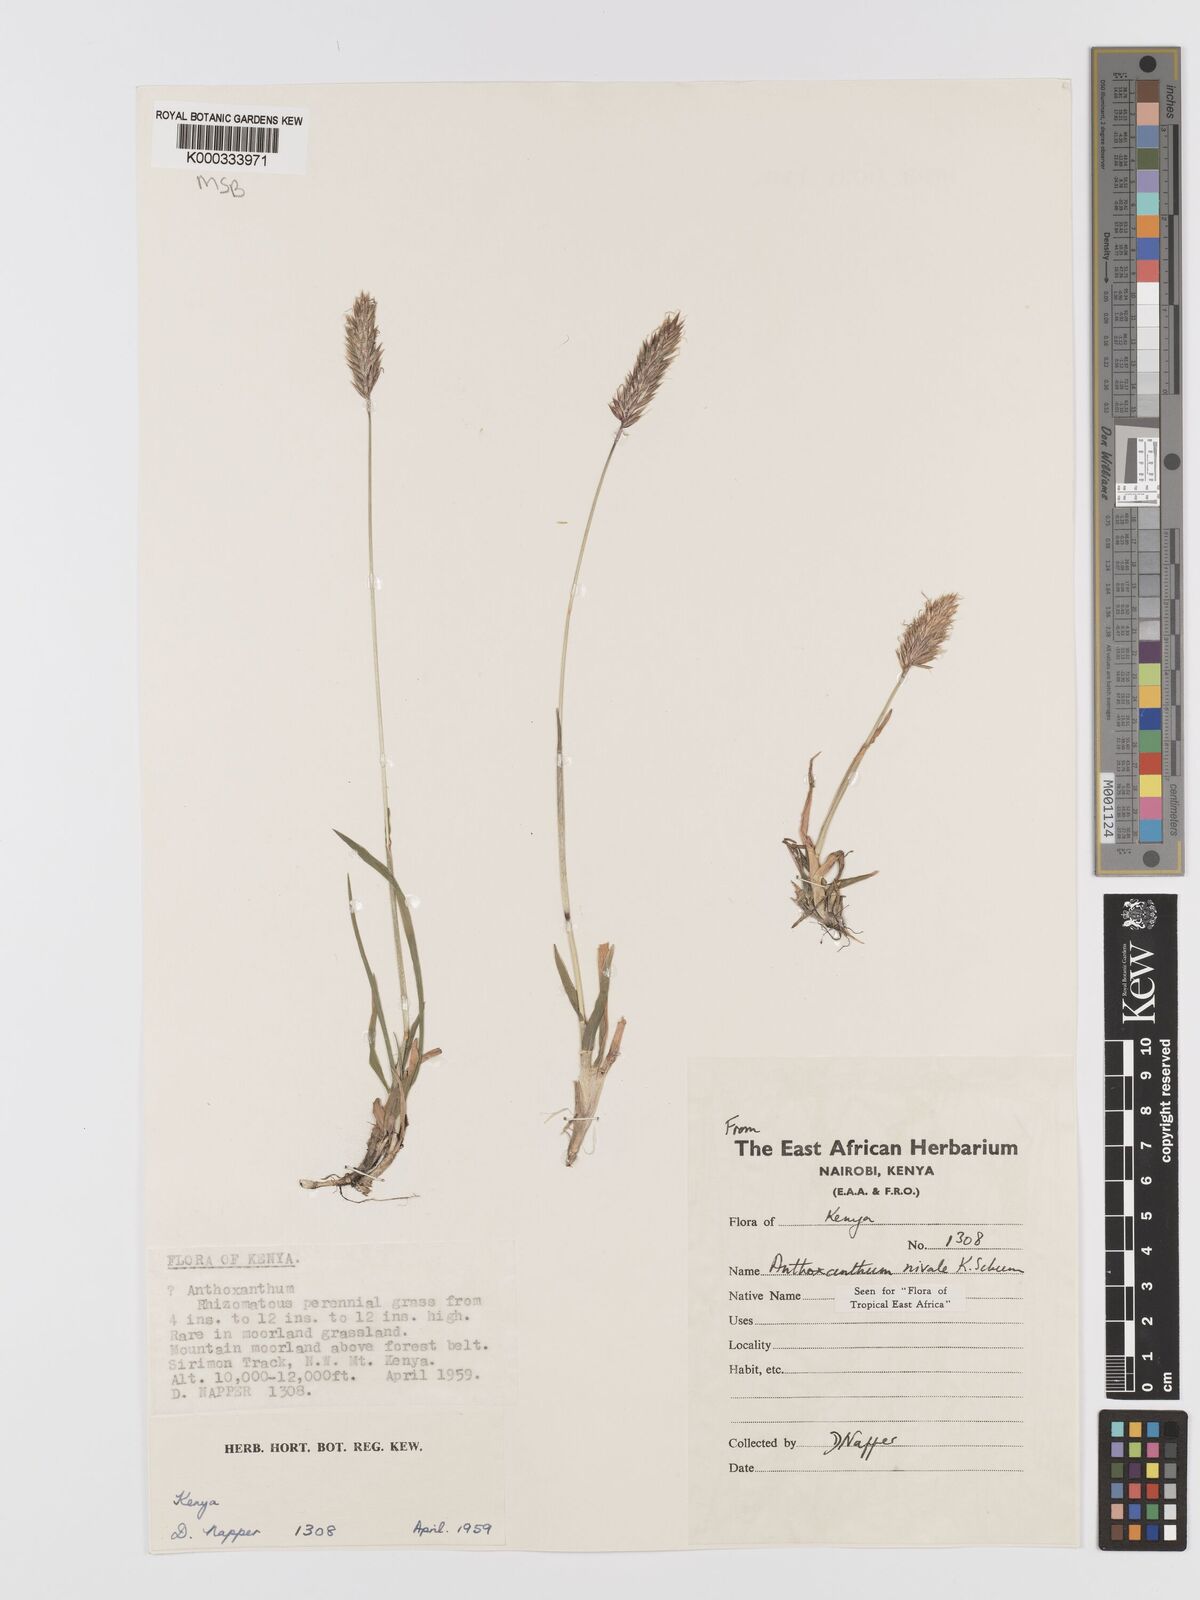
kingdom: Plantae
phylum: Tracheophyta
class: Liliopsida
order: Poales
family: Poaceae
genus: Anthoxanthum
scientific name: Anthoxanthum
